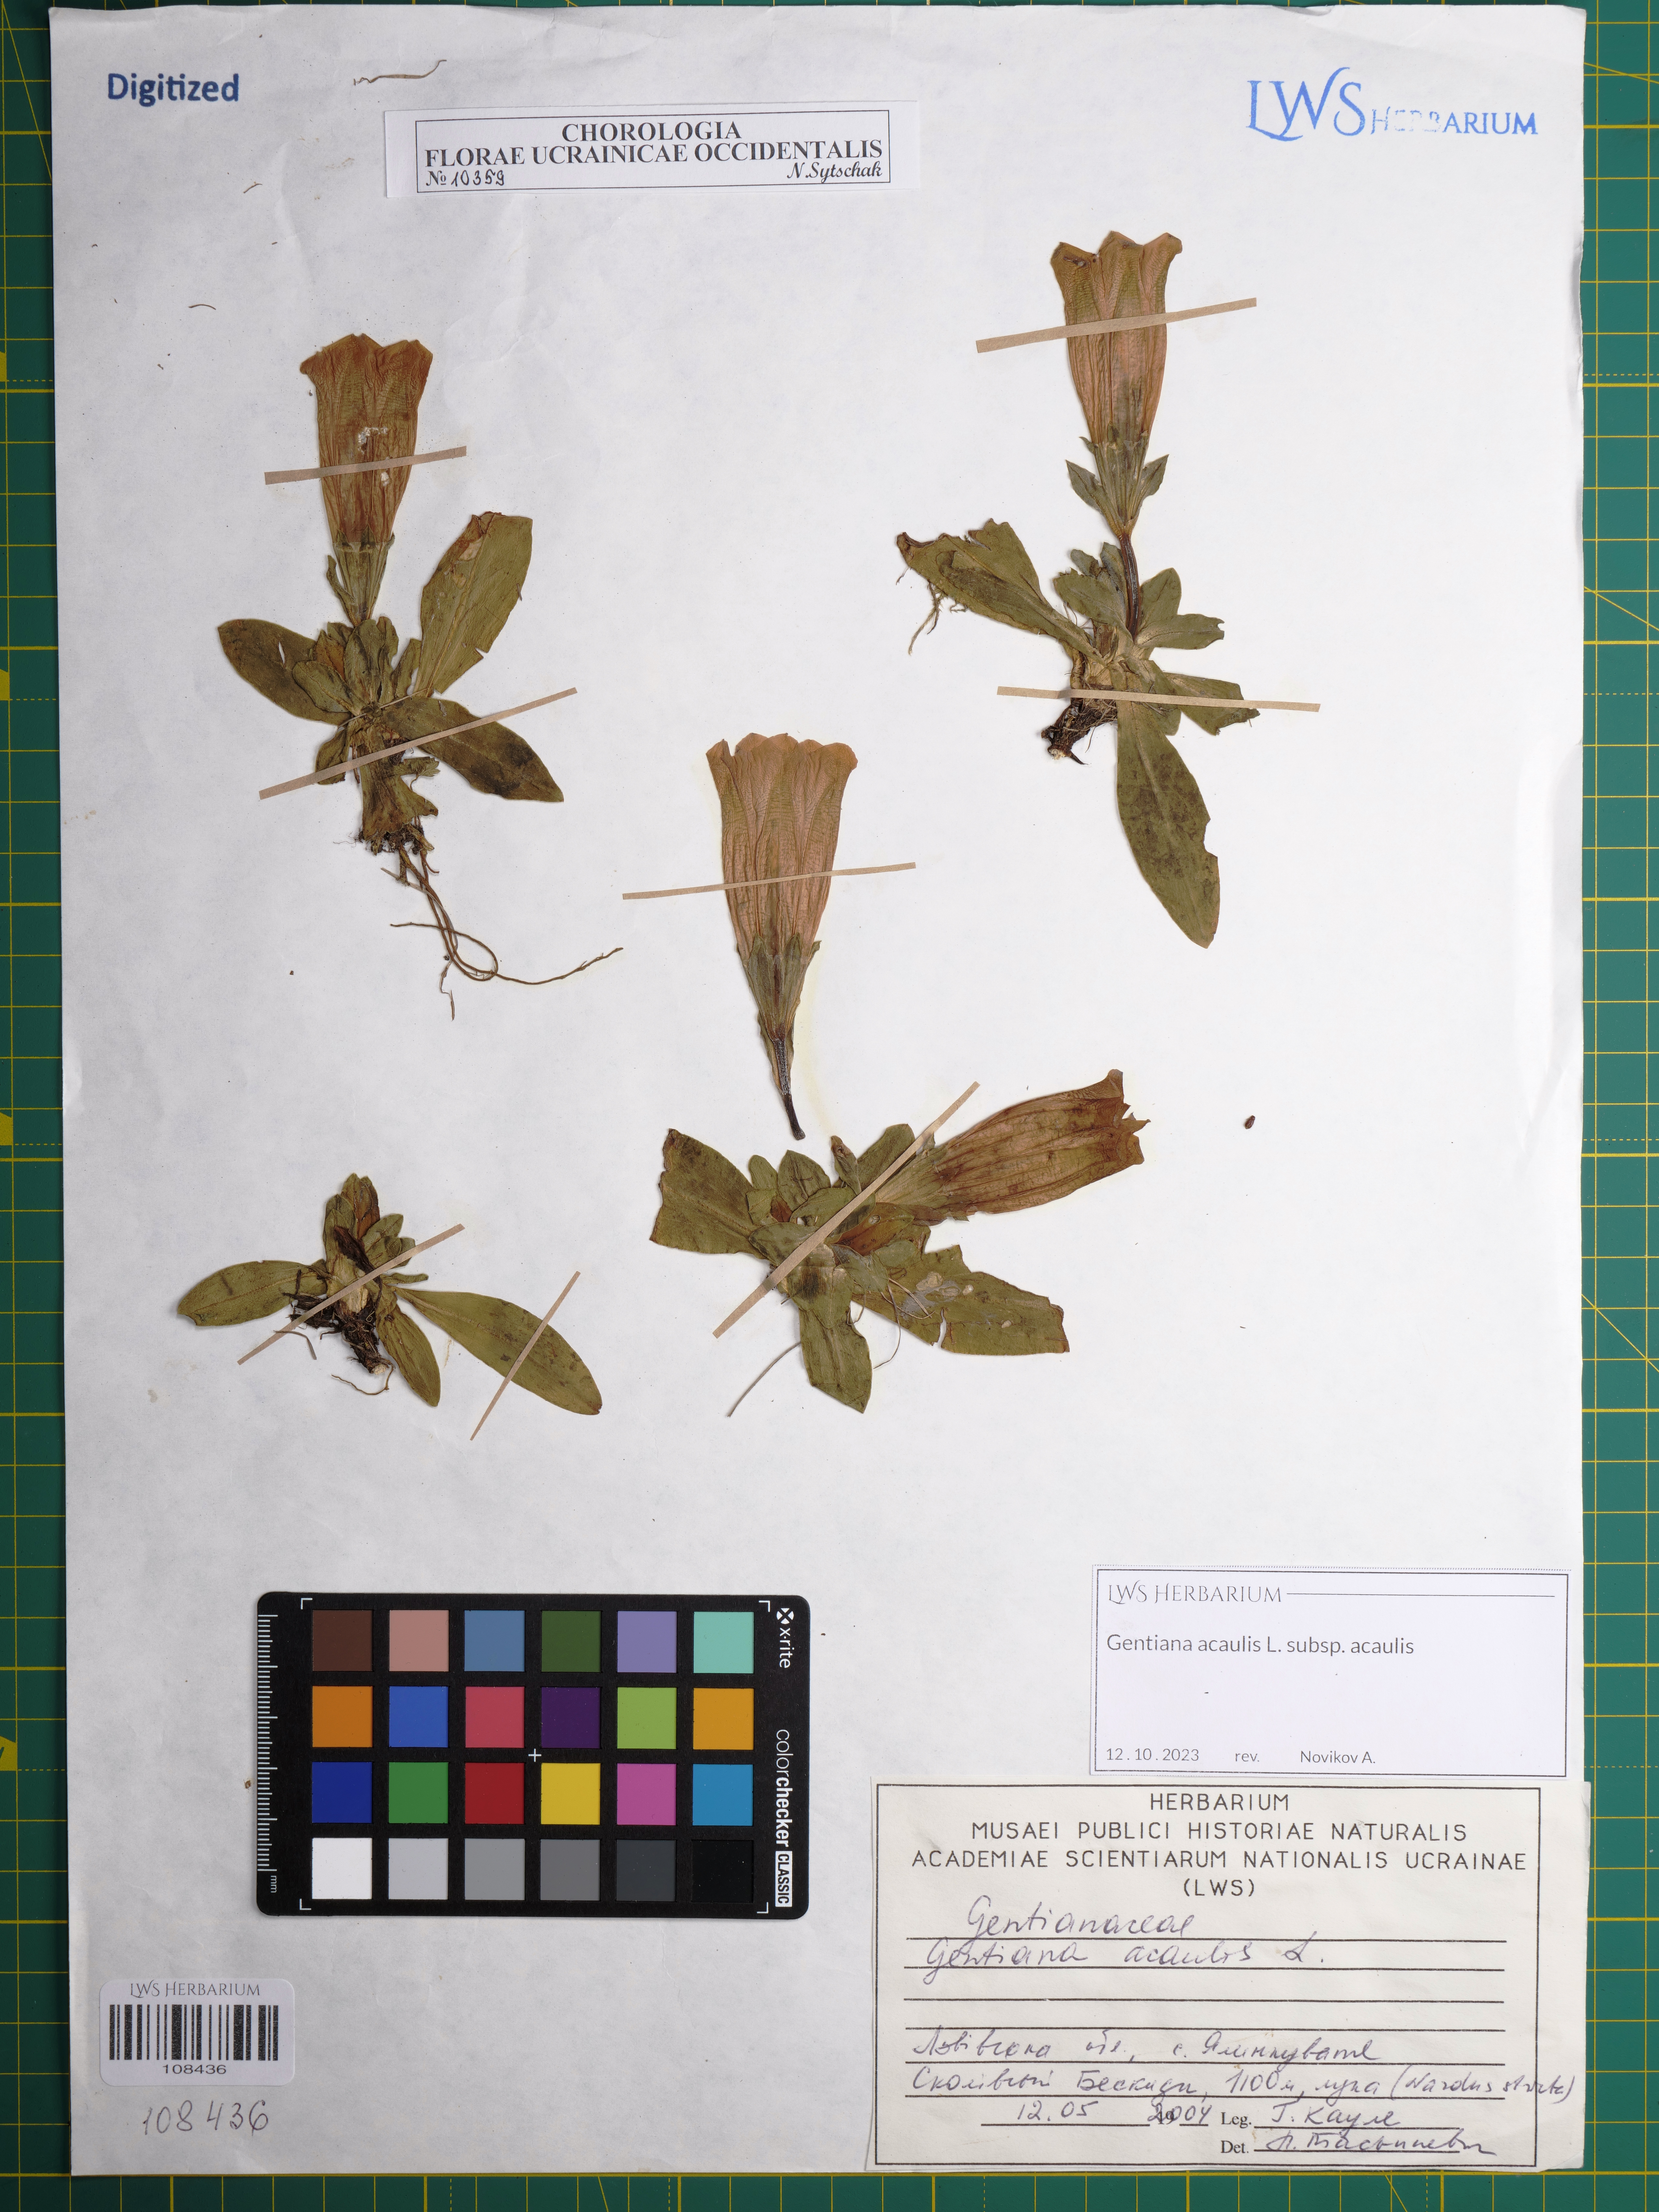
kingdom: Plantae
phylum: Tracheophyta
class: Magnoliopsida
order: Gentianales
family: Gentianaceae
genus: Gentiana
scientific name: Gentiana acaulis
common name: Trumpet gentian
